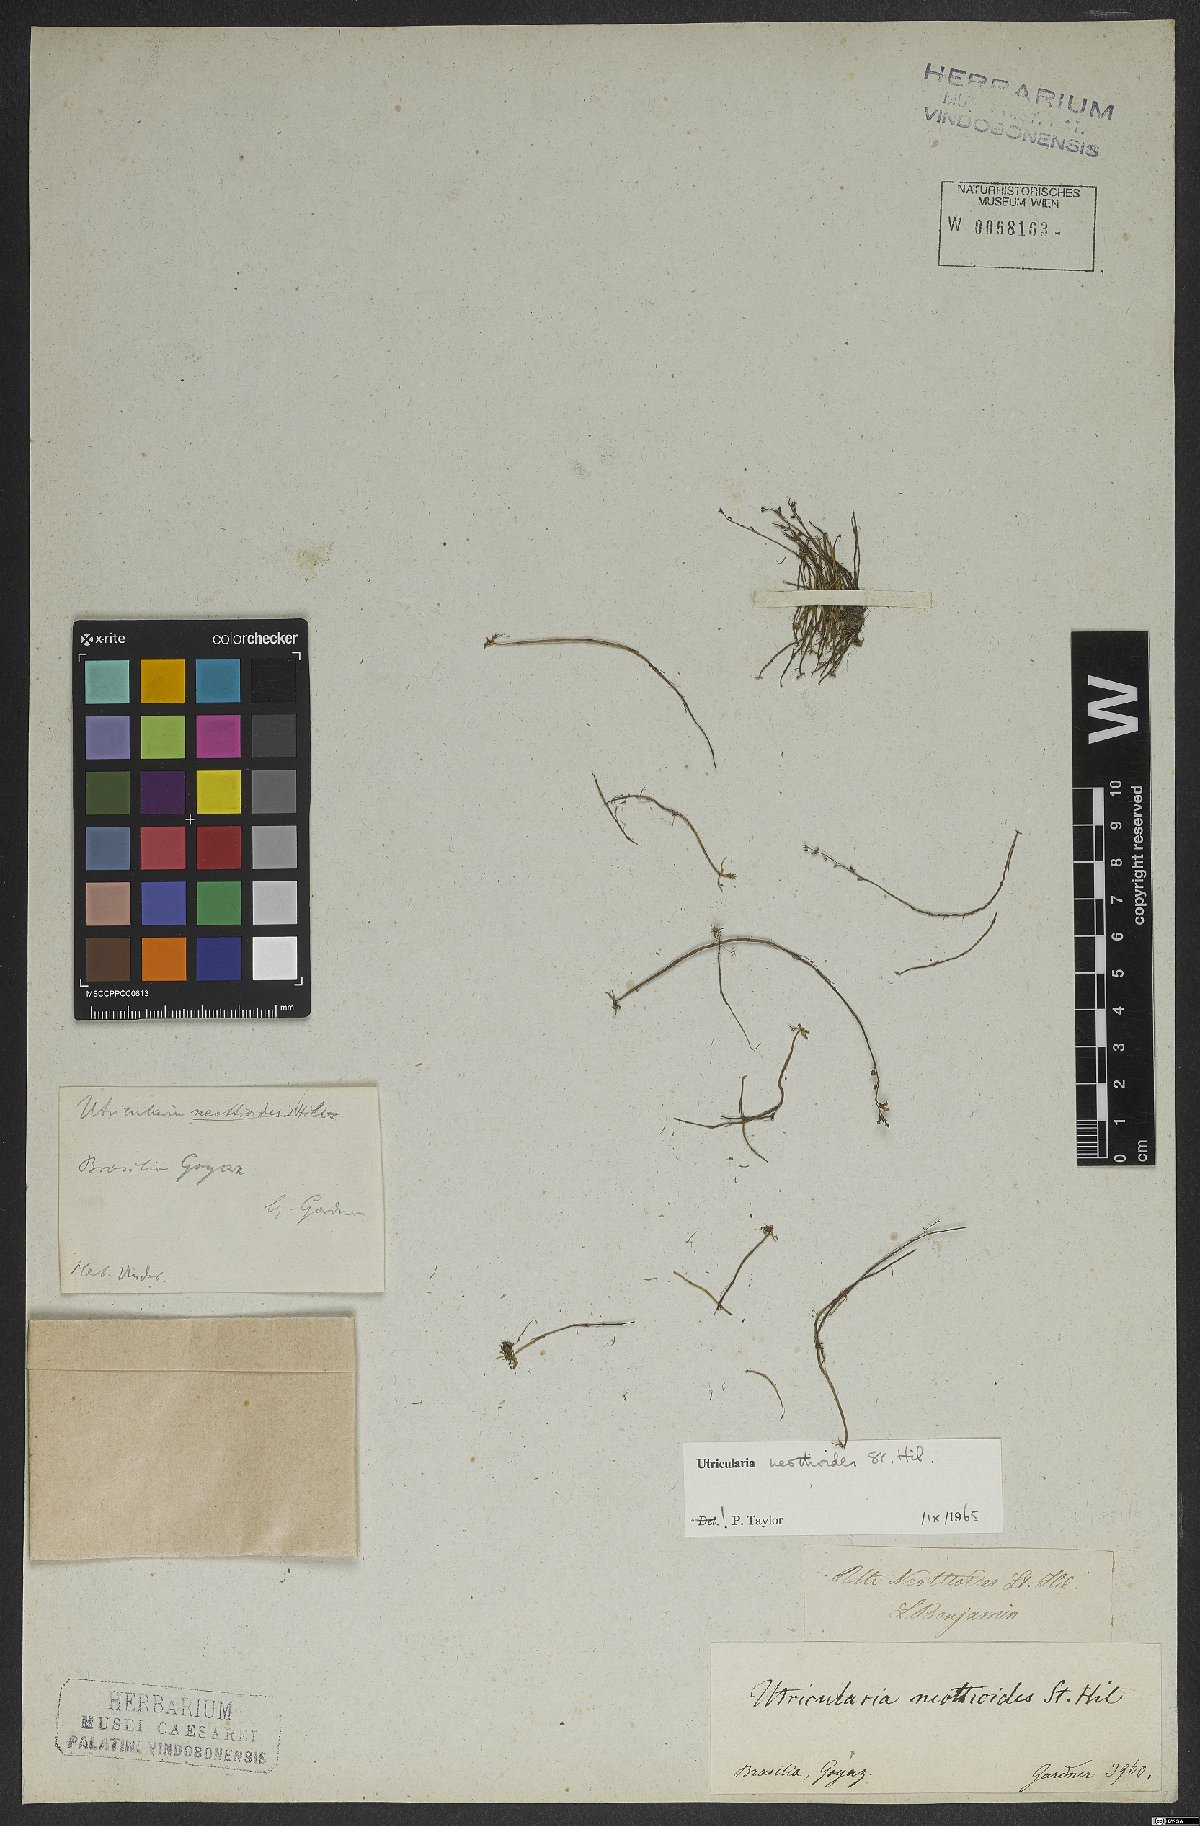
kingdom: Plantae
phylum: Tracheophyta
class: Magnoliopsida
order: Lamiales
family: Lentibulariaceae
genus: Utricularia
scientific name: Utricularia neottioides
